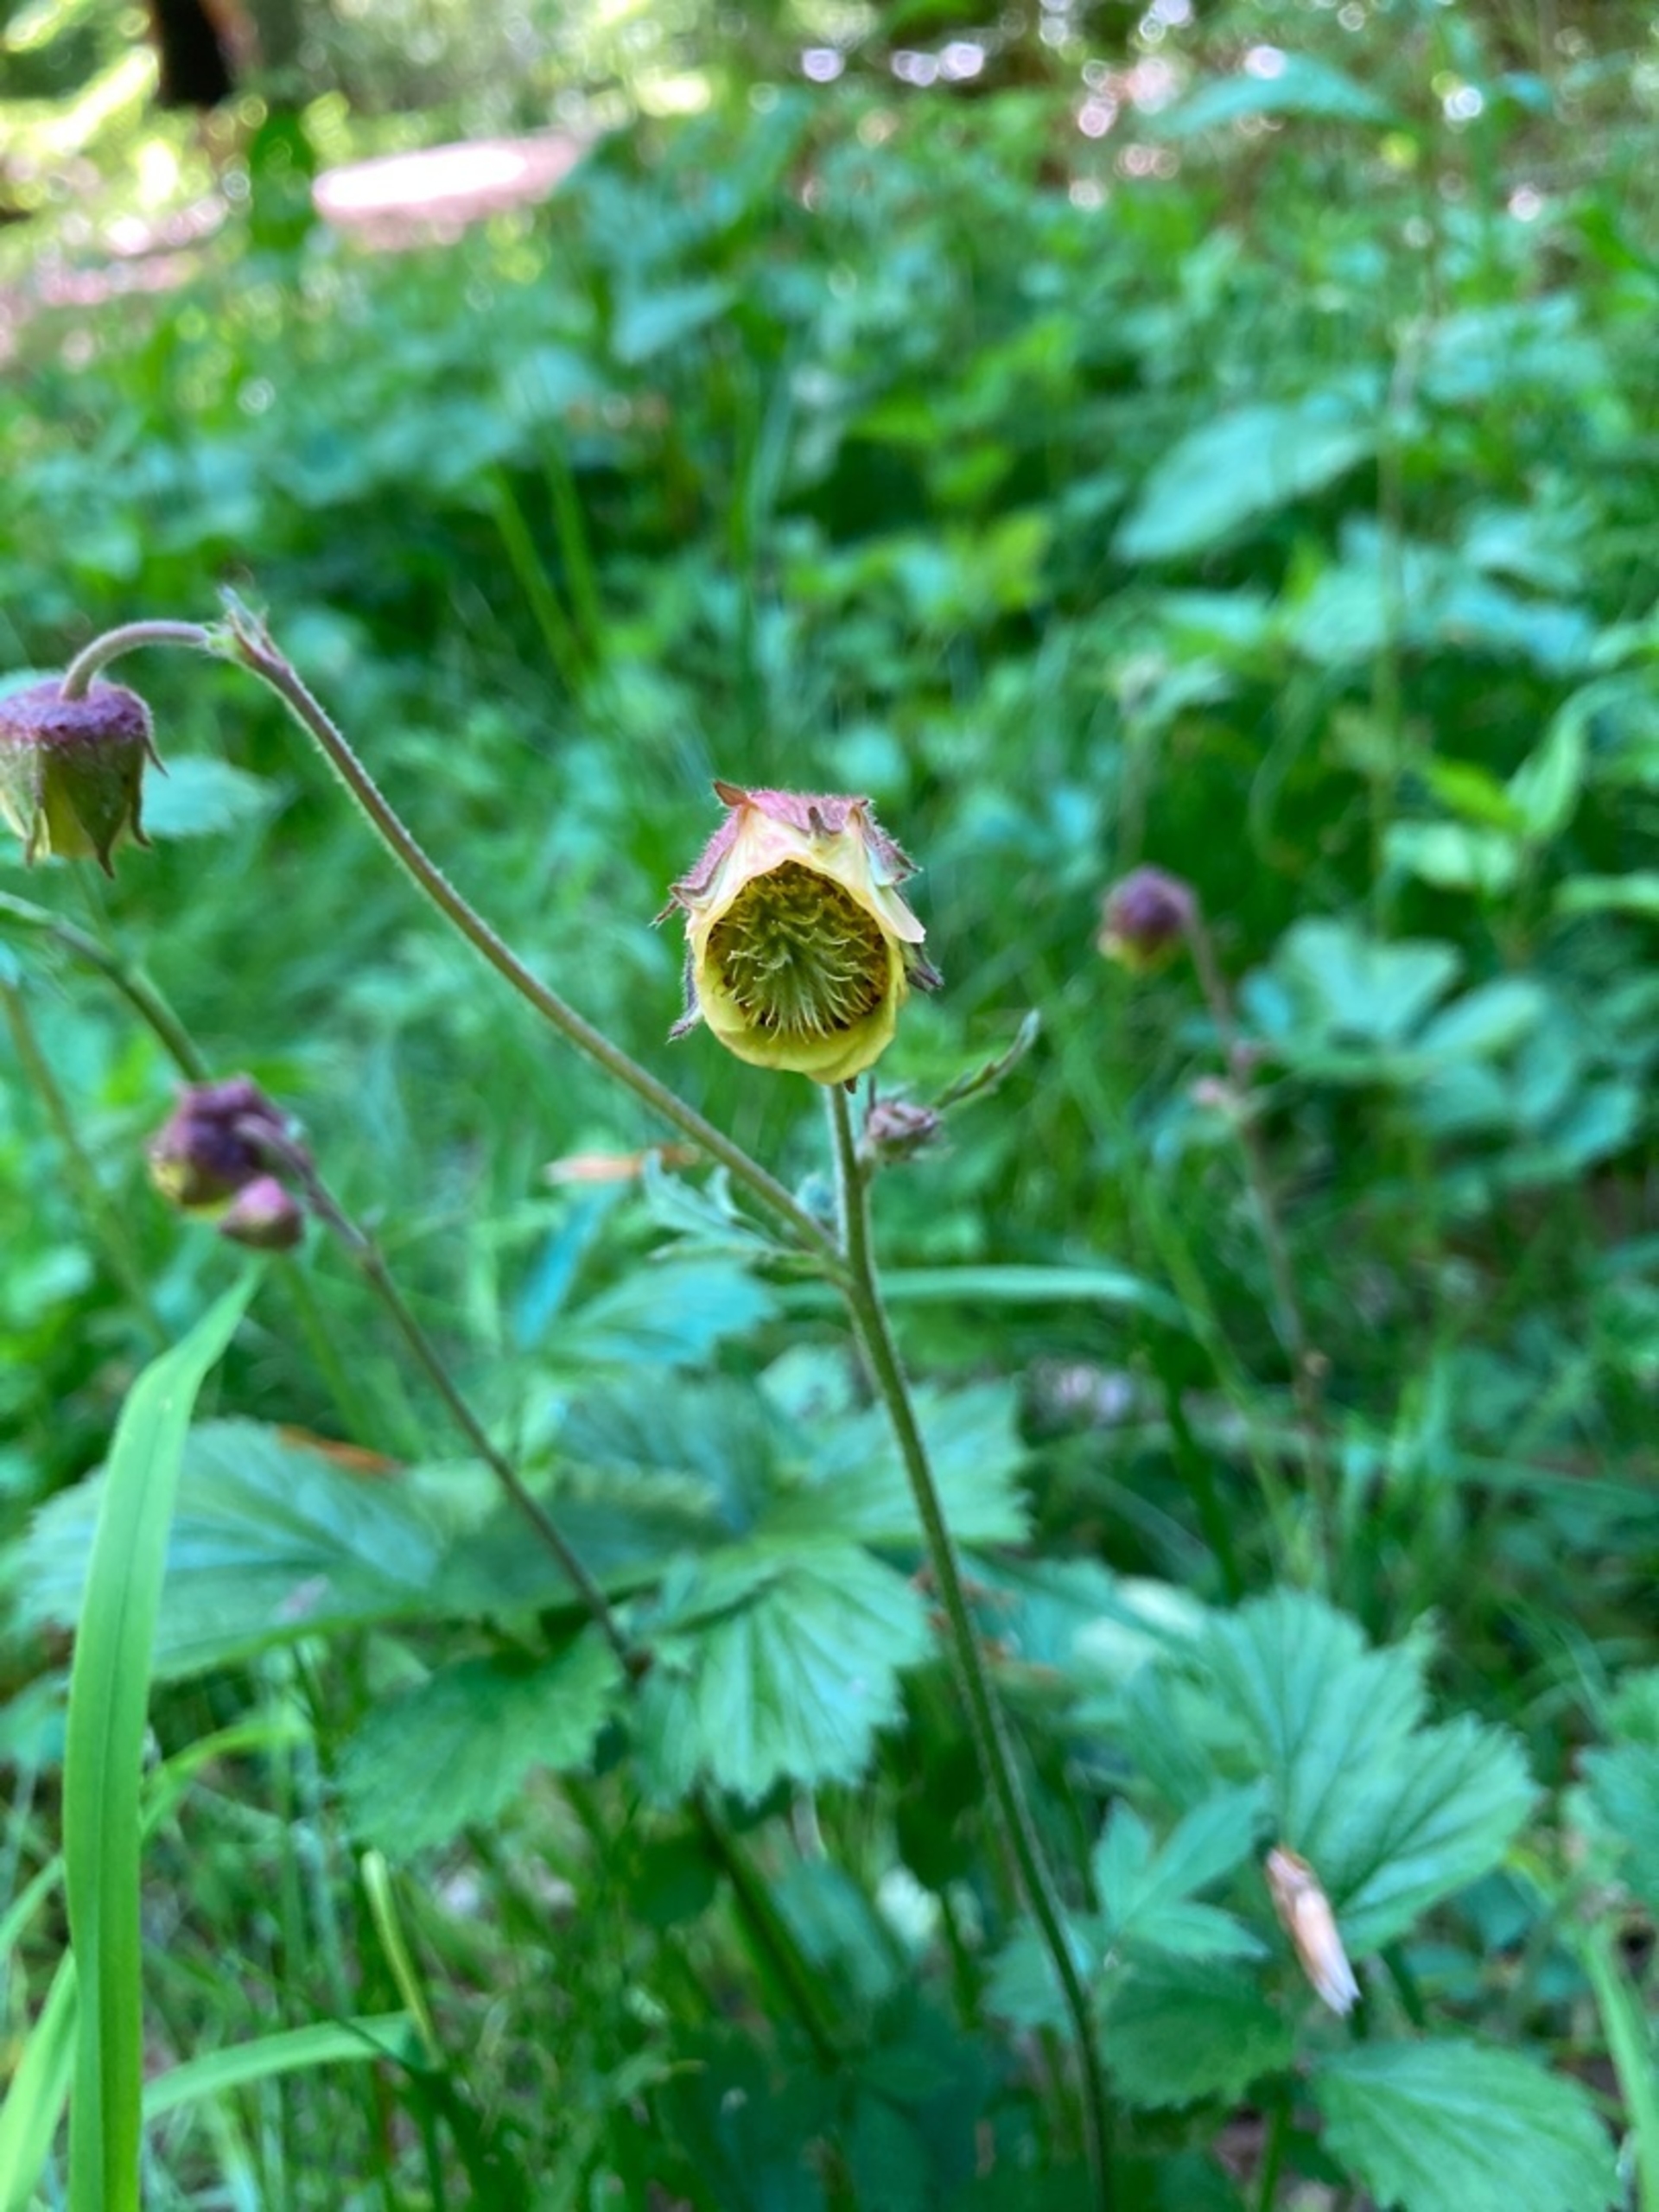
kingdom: Plantae
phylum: Tracheophyta
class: Magnoliopsida
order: Rosales
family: Rosaceae
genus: Geum
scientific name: Geum rivale
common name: Eng-nellikerod
